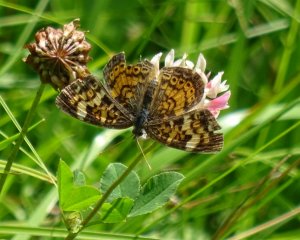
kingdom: Animalia
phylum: Arthropoda
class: Insecta
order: Lepidoptera
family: Nymphalidae
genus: Phyciodes
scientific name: Phyciodes tharos
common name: Northern Crescent
